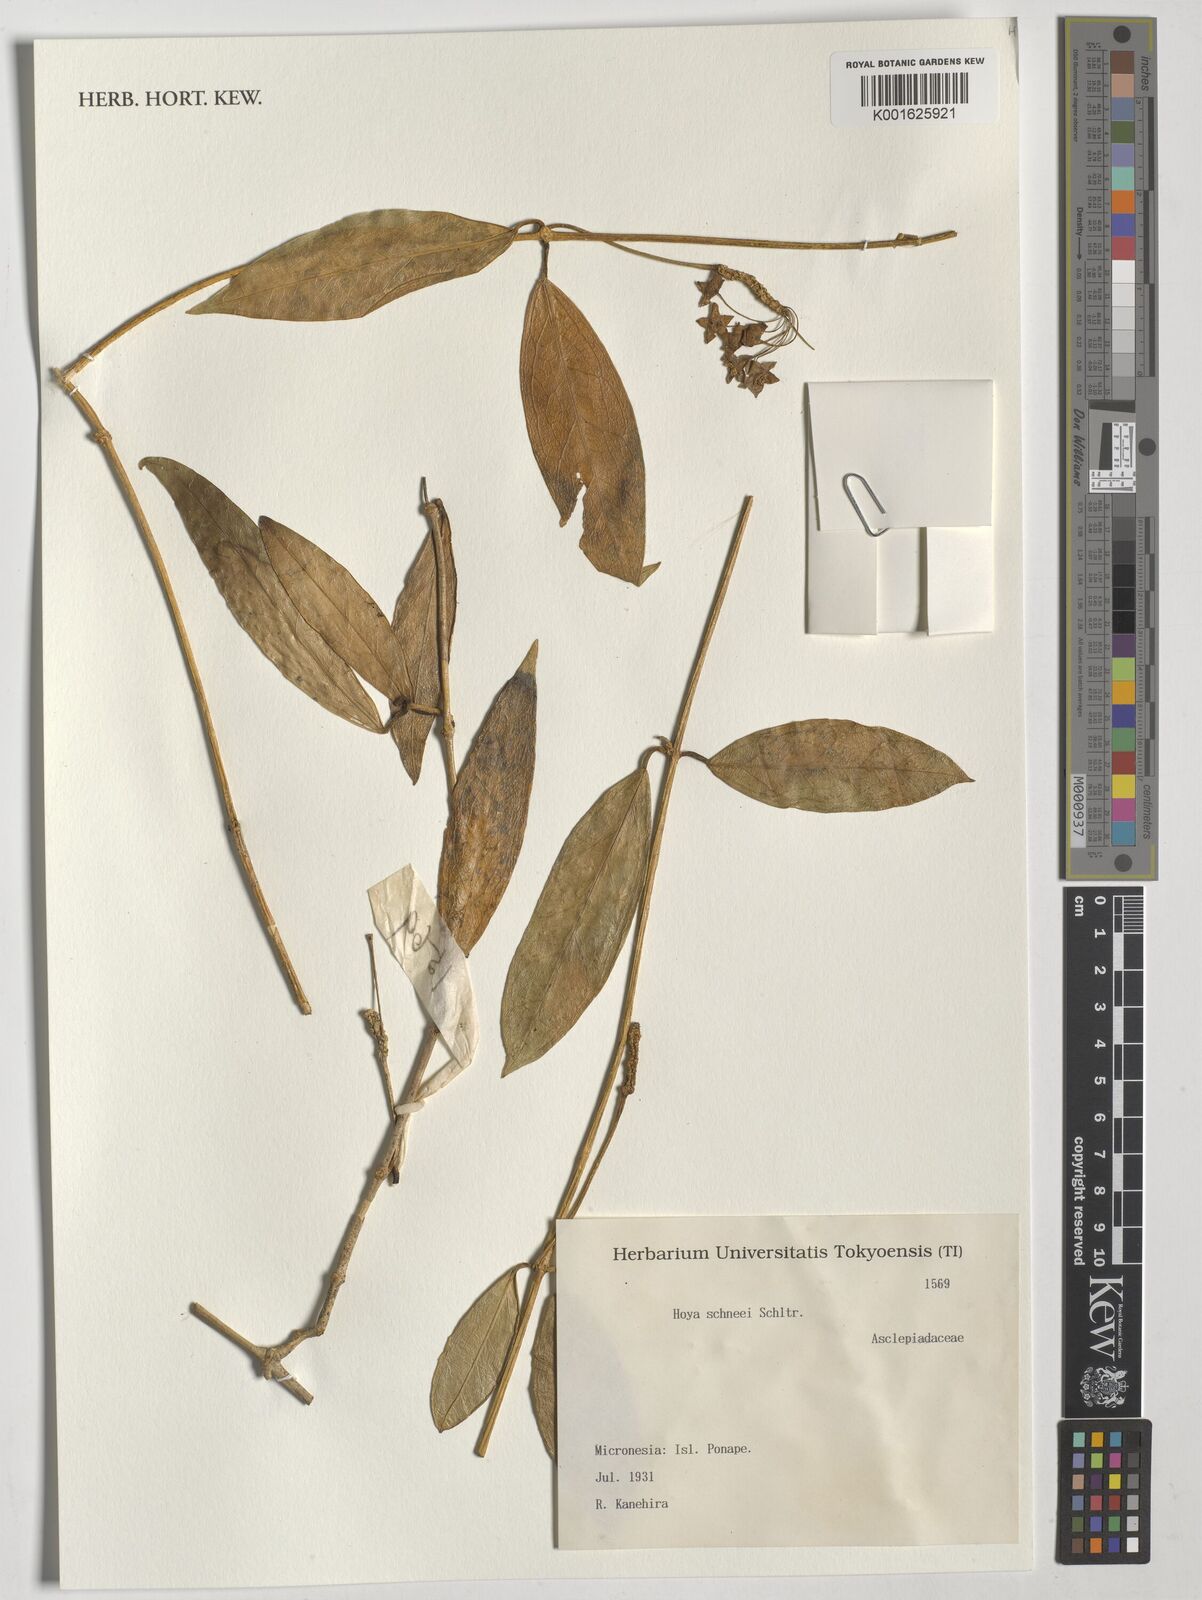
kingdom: Plantae
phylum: Tracheophyta
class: Magnoliopsida
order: Gentianales
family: Apocynaceae
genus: Hoya
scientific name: Hoya schneei
